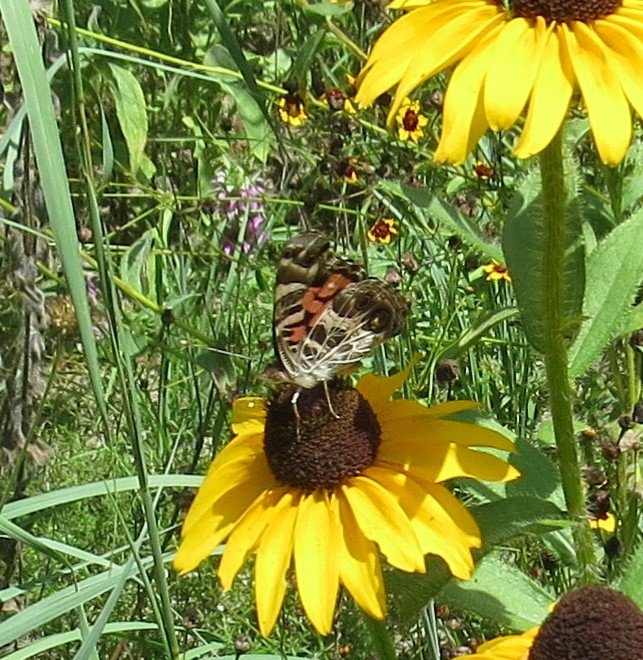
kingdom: Animalia
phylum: Arthropoda
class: Insecta
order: Lepidoptera
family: Nymphalidae
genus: Vanessa
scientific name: Vanessa virginiensis
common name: American Lady
